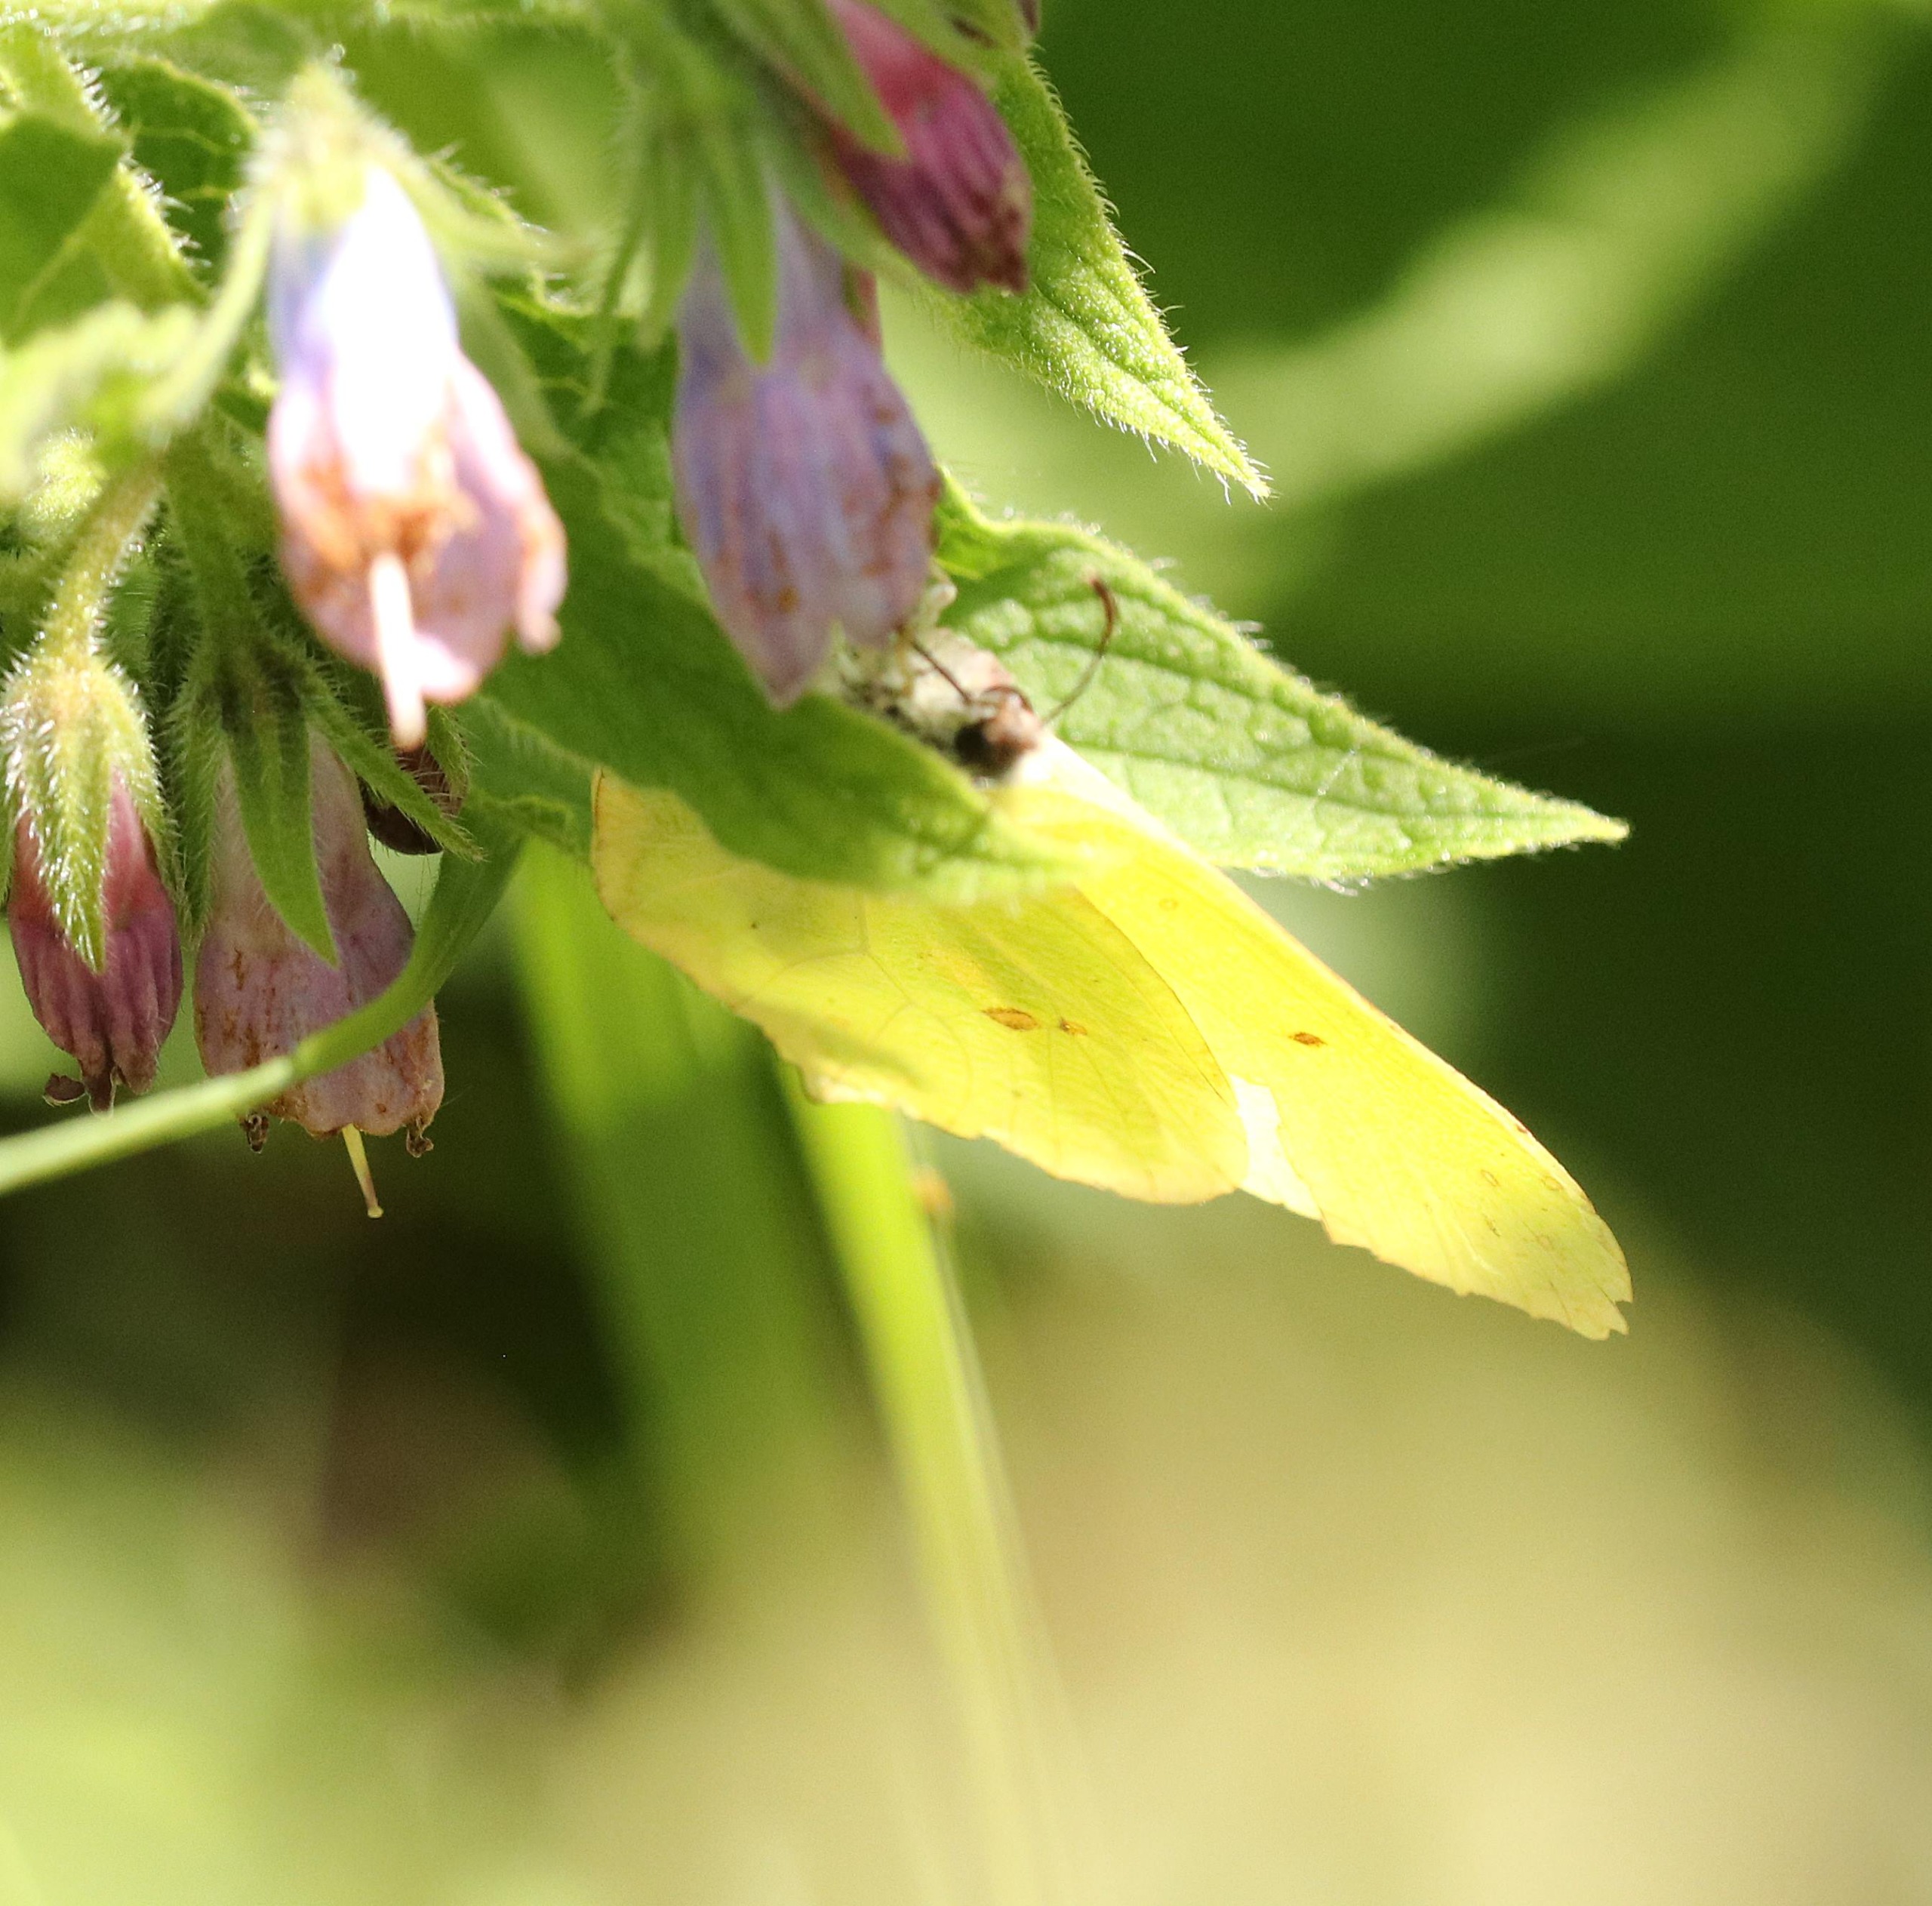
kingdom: Animalia
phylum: Arthropoda
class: Insecta
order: Lepidoptera
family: Pieridae
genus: Gonepteryx
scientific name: Gonepteryx rhamni
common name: Citronsommerfugl
